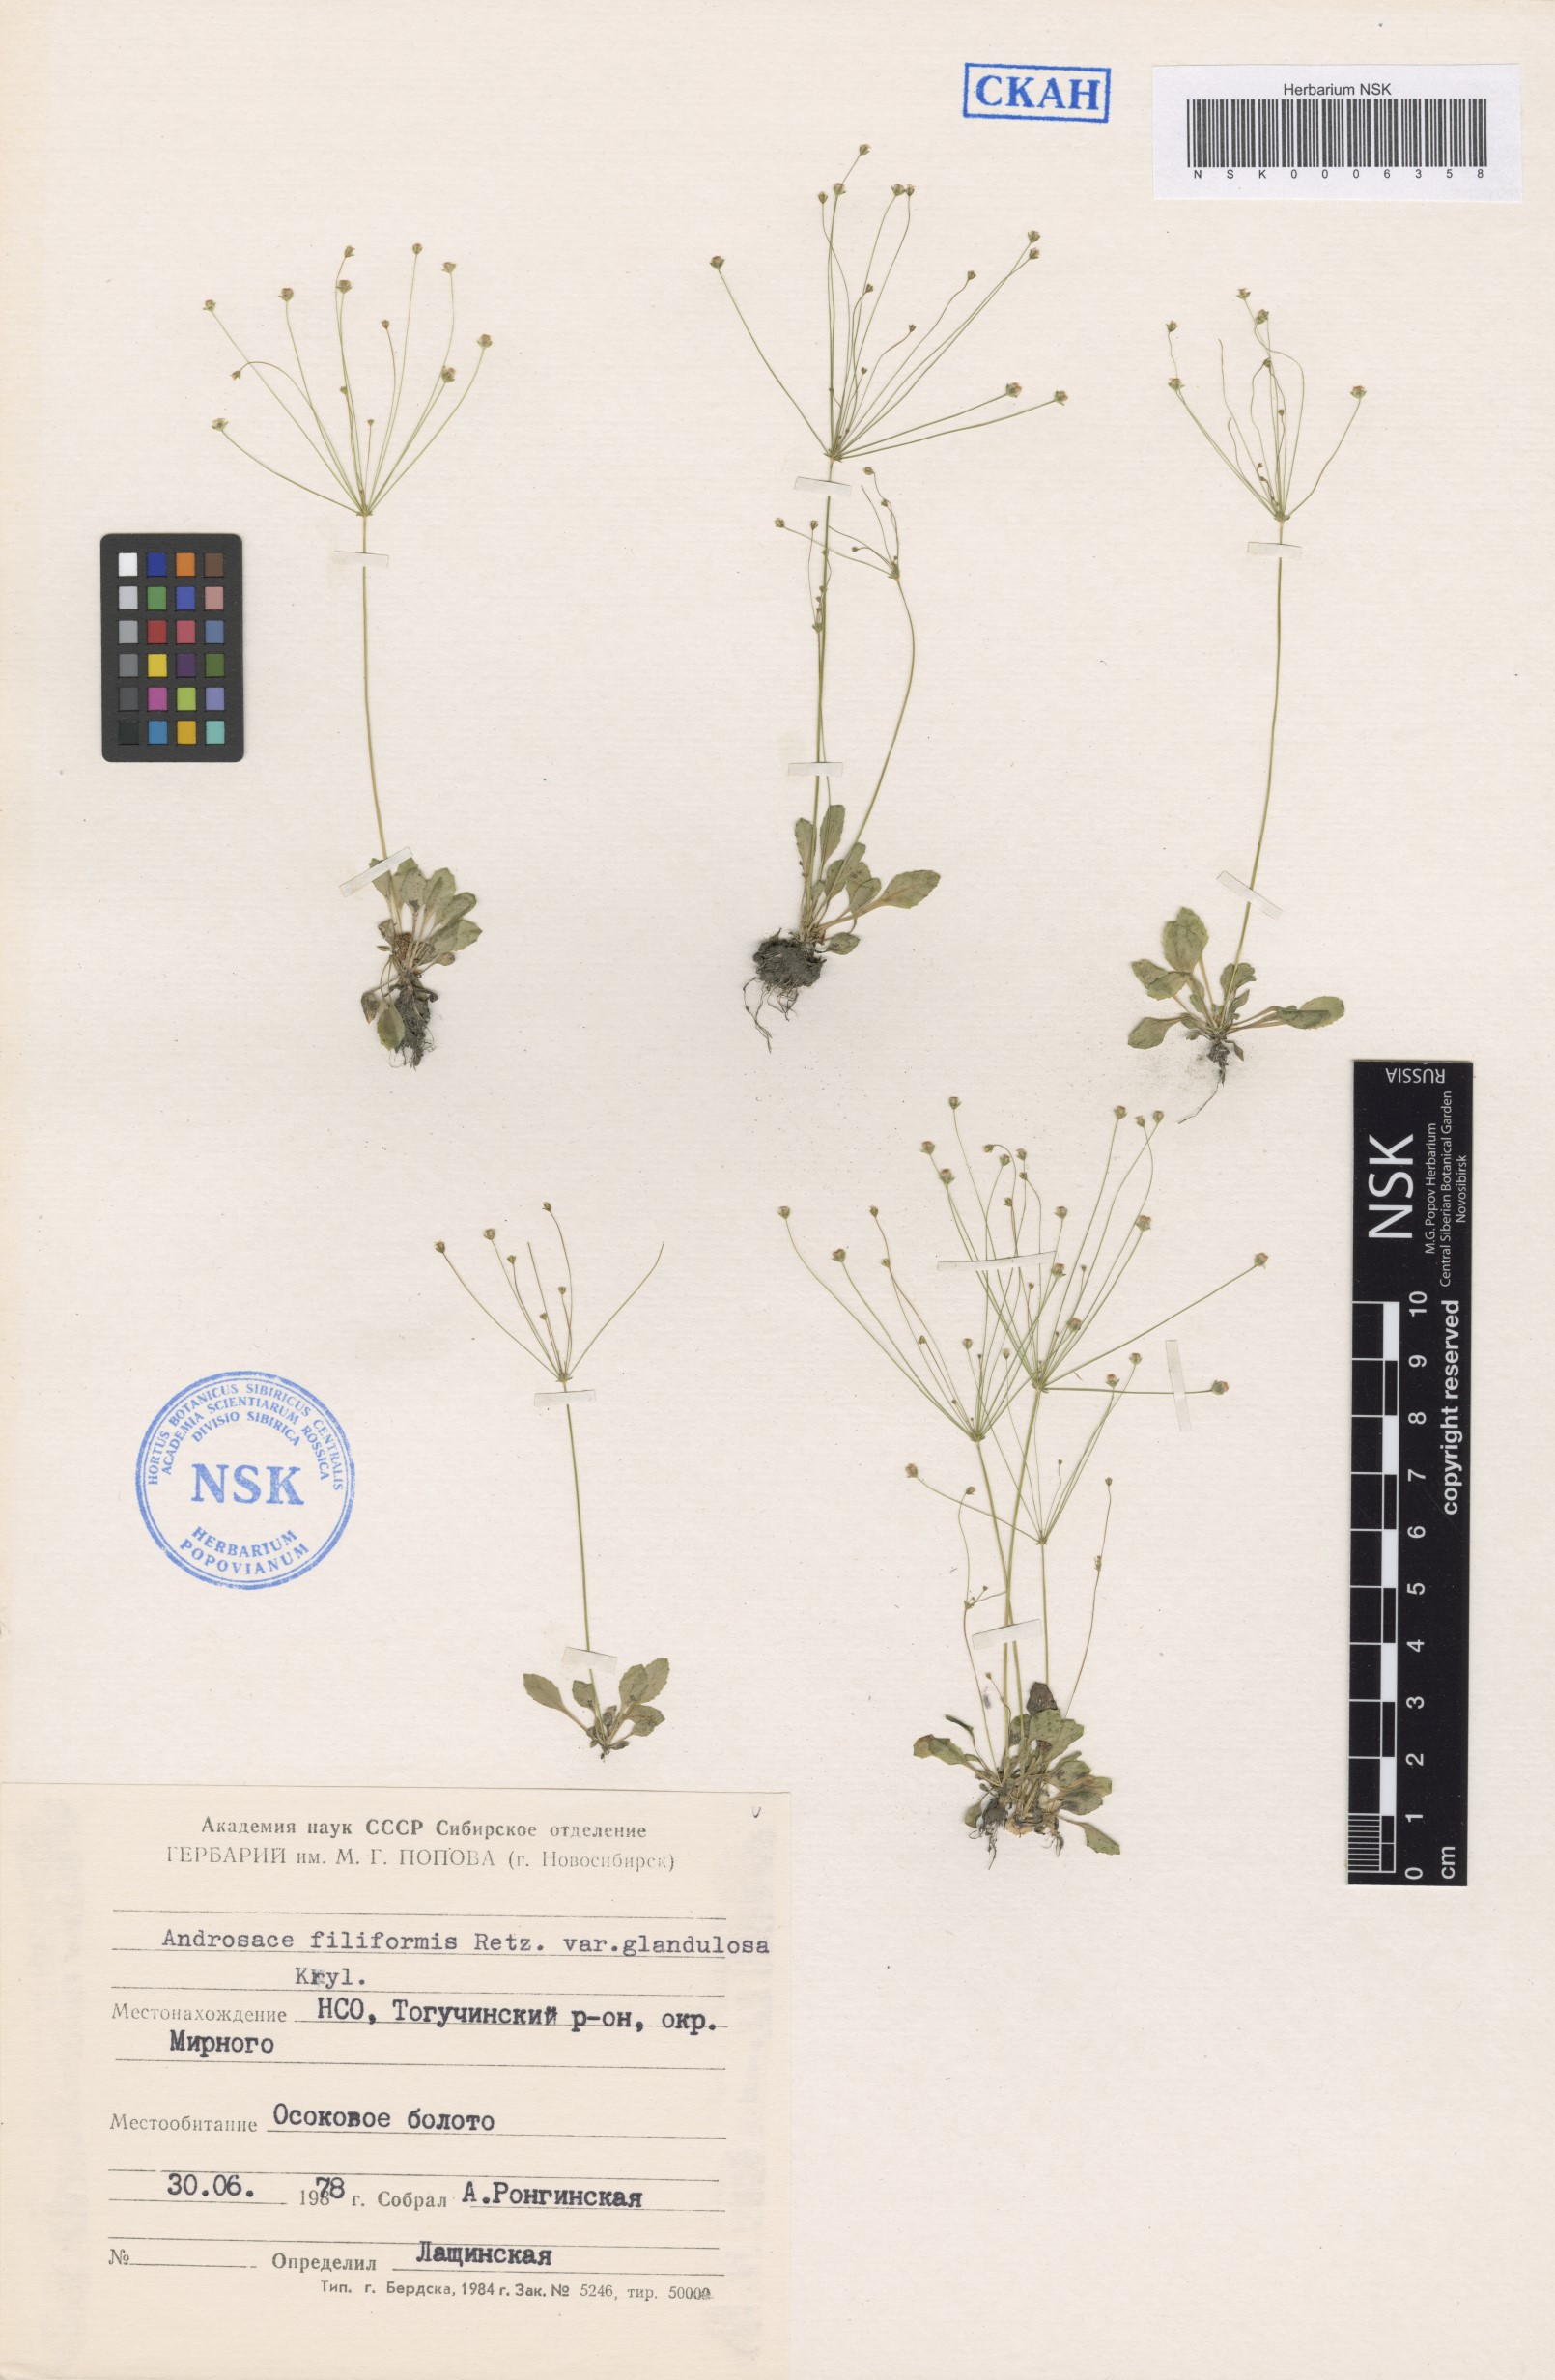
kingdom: Plantae
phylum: Tracheophyta
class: Magnoliopsida
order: Ericales
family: Primulaceae
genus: Androsace
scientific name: Androsace filiformis
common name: Filiform rock jasmine
